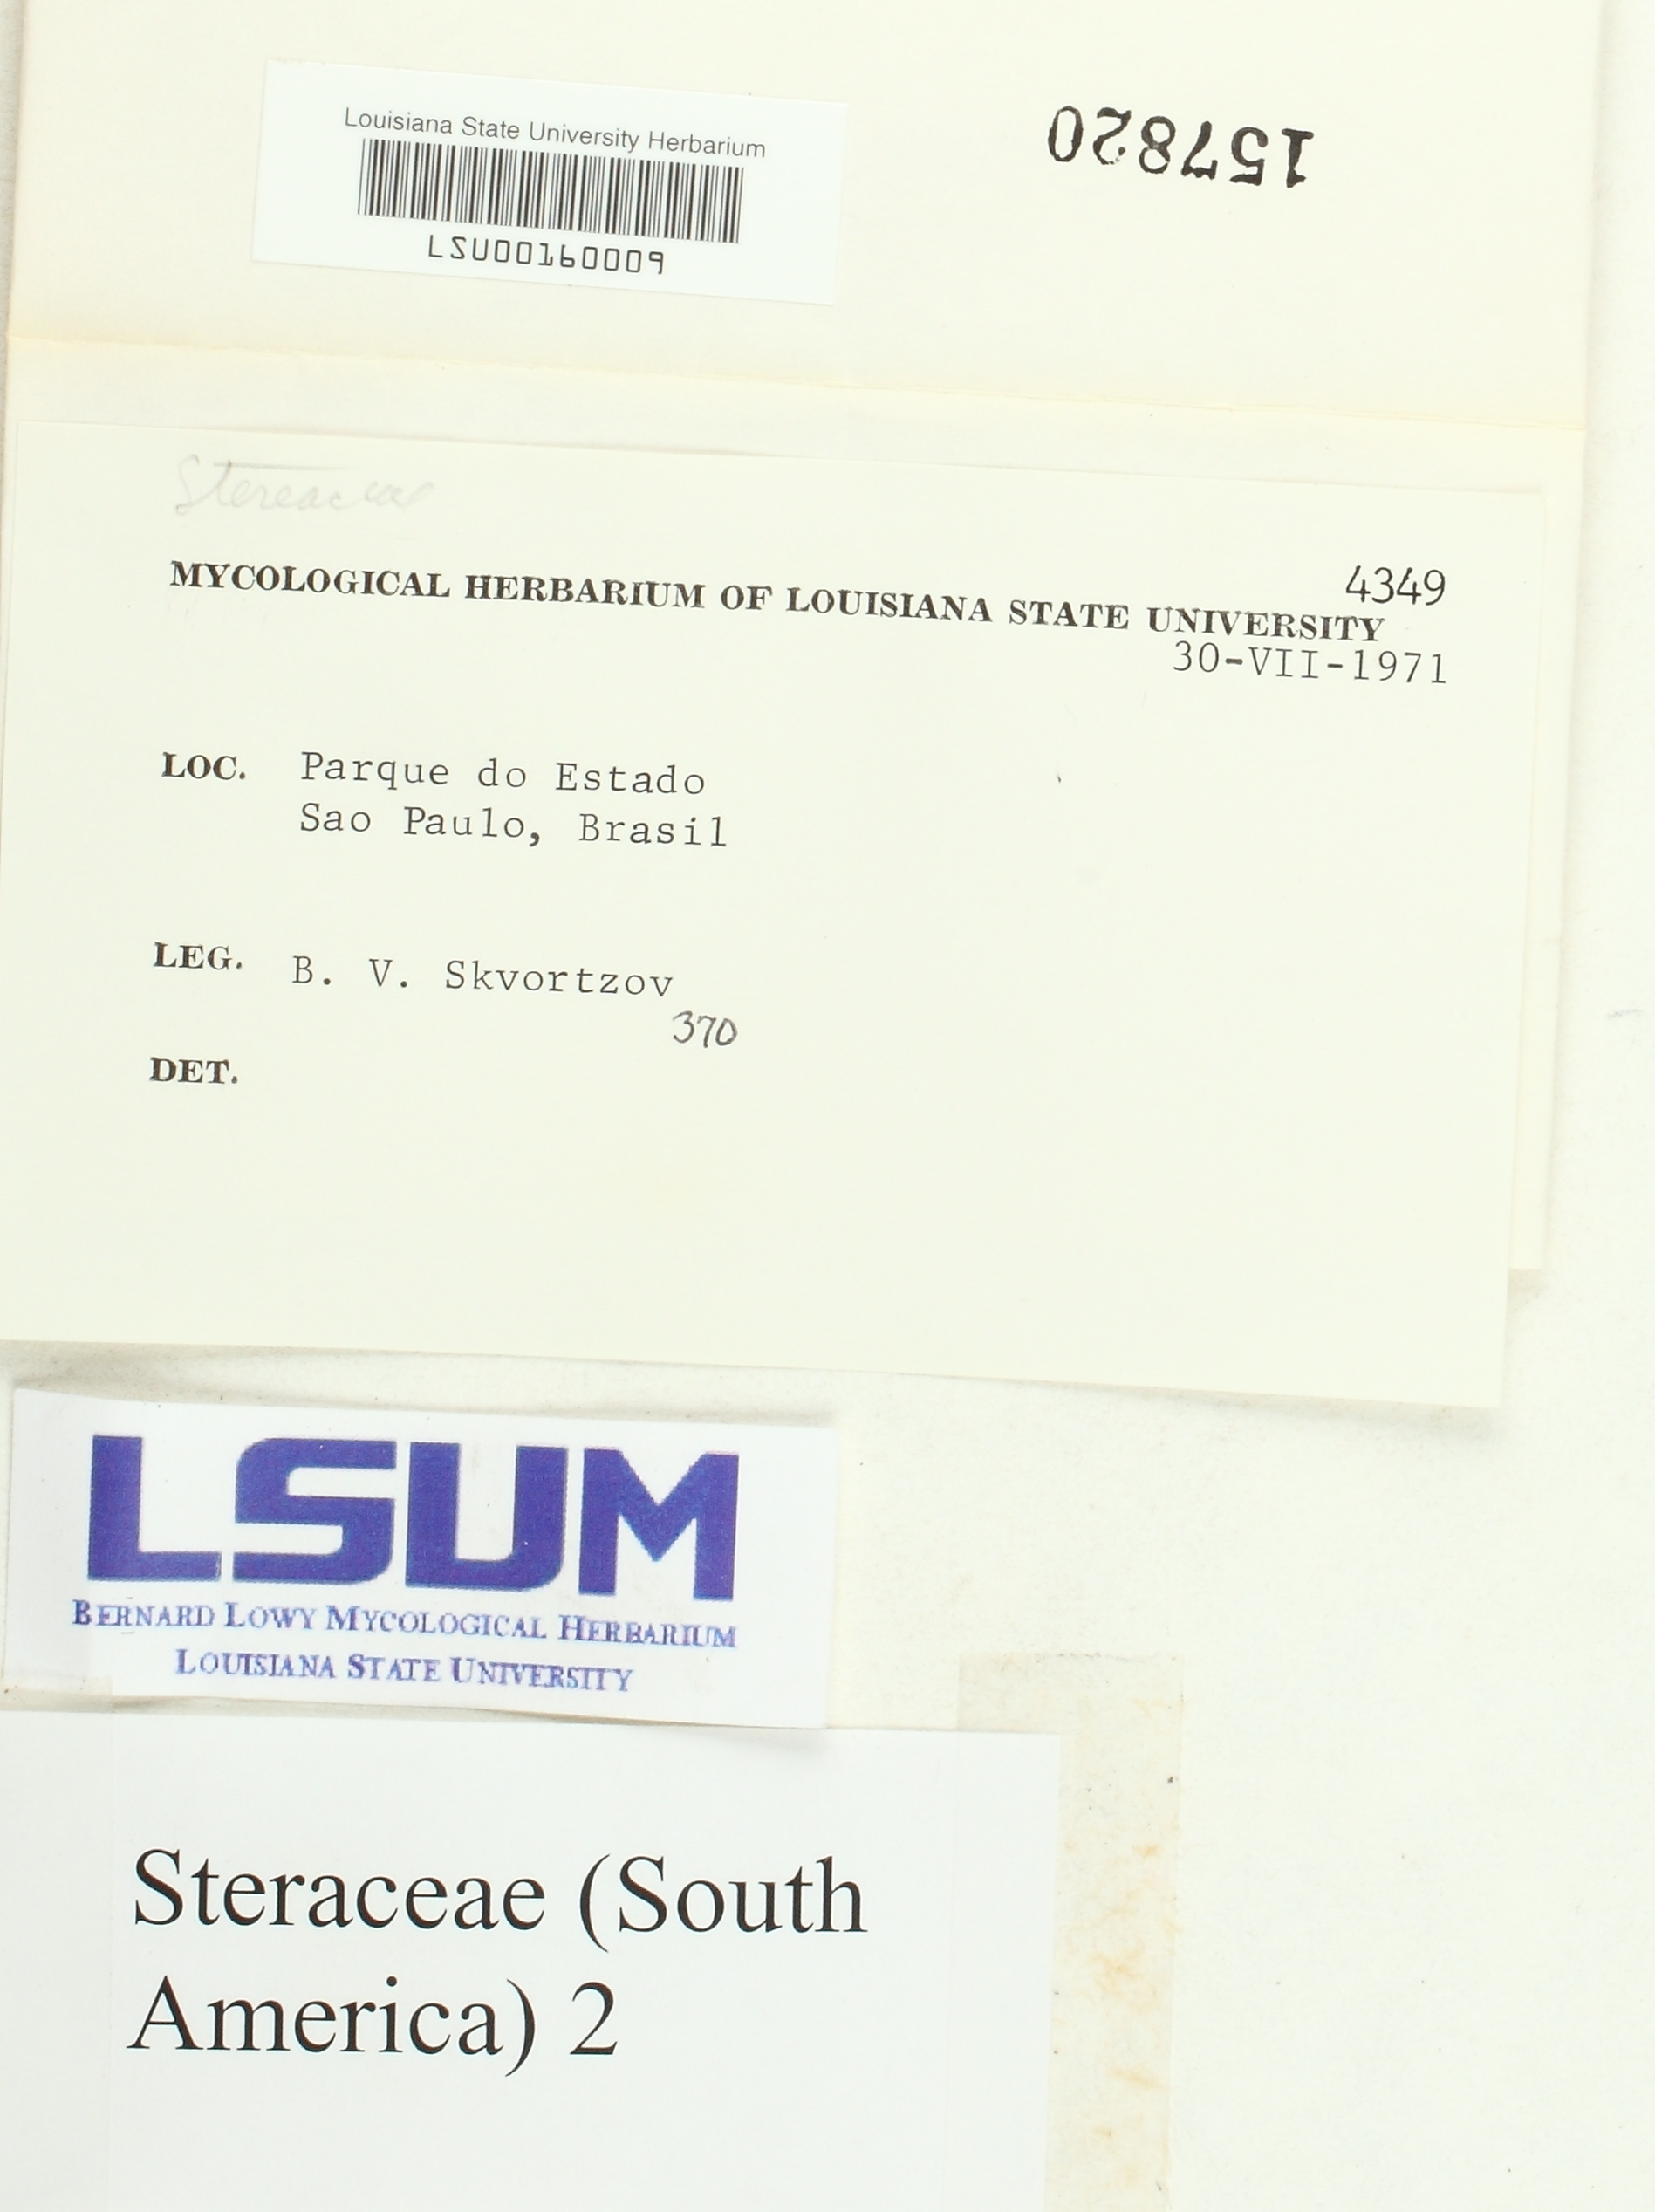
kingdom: Fungi
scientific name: Fungi
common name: Fungi
